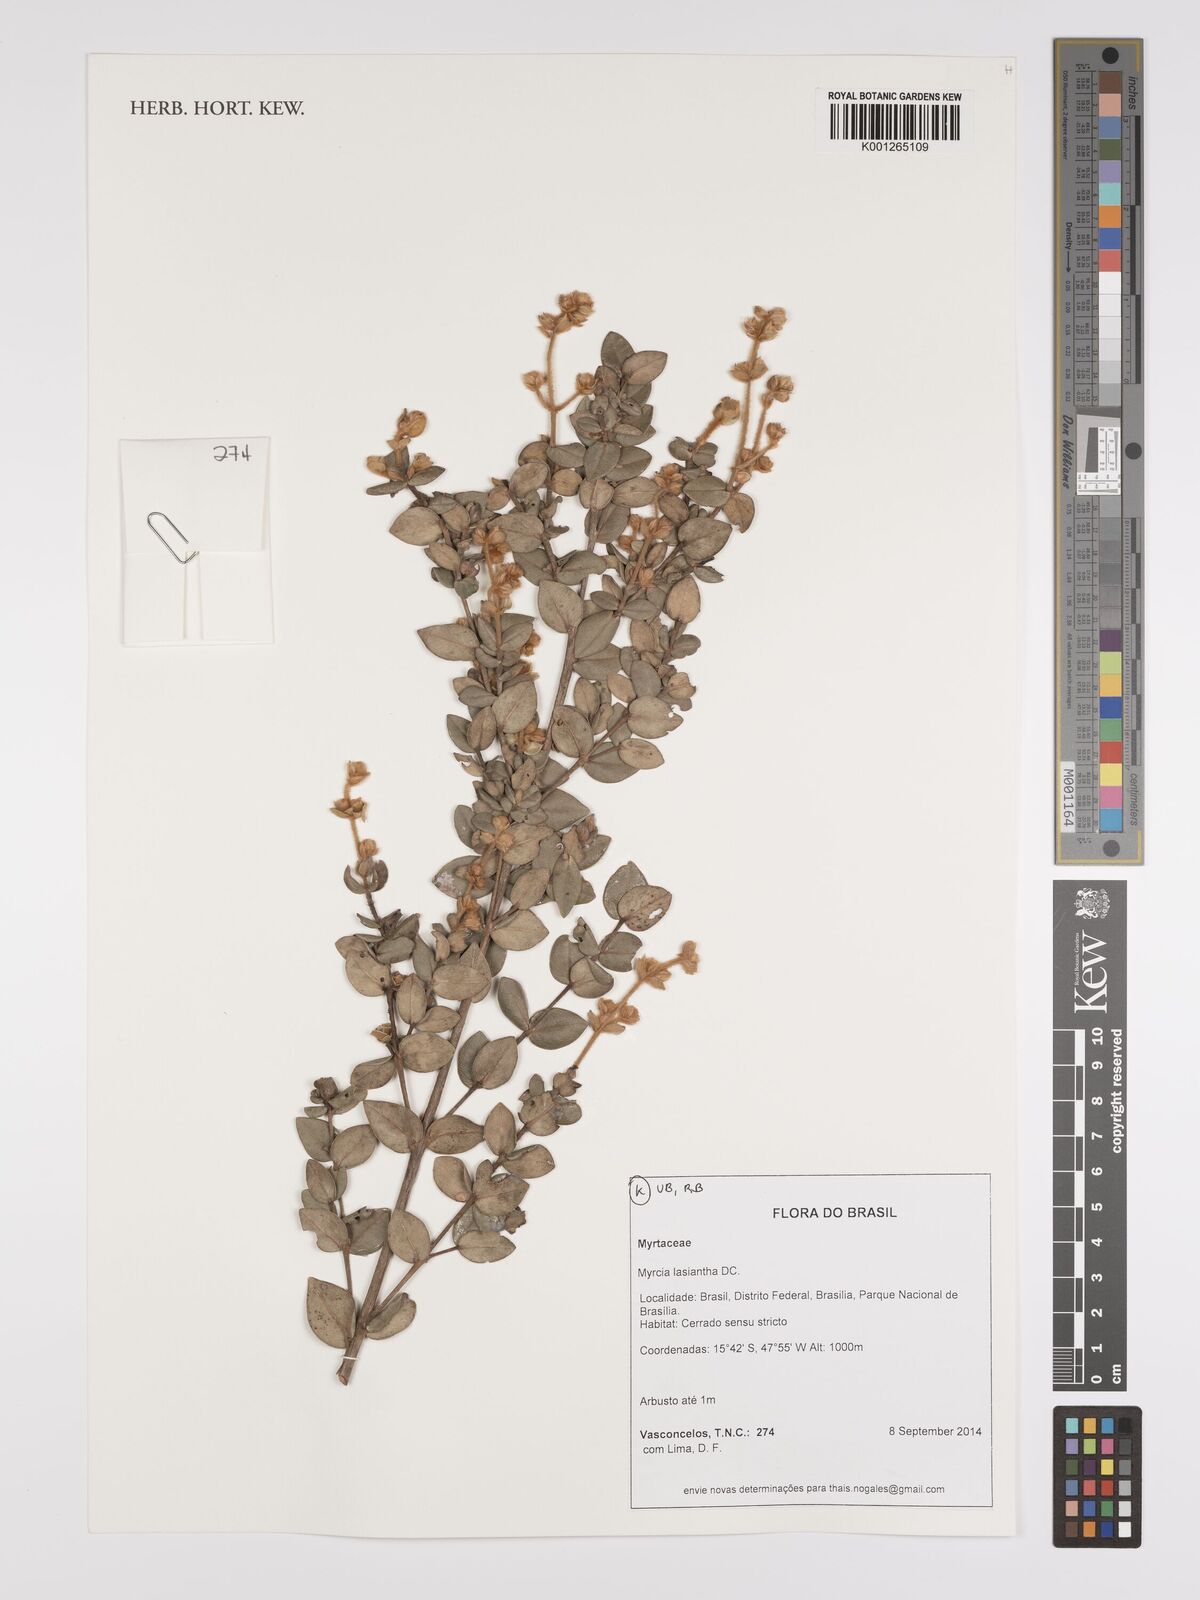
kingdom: Plantae
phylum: Tracheophyta
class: Magnoliopsida
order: Myrtales
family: Myrtaceae
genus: Myrcia
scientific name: Myrcia lasiantha
